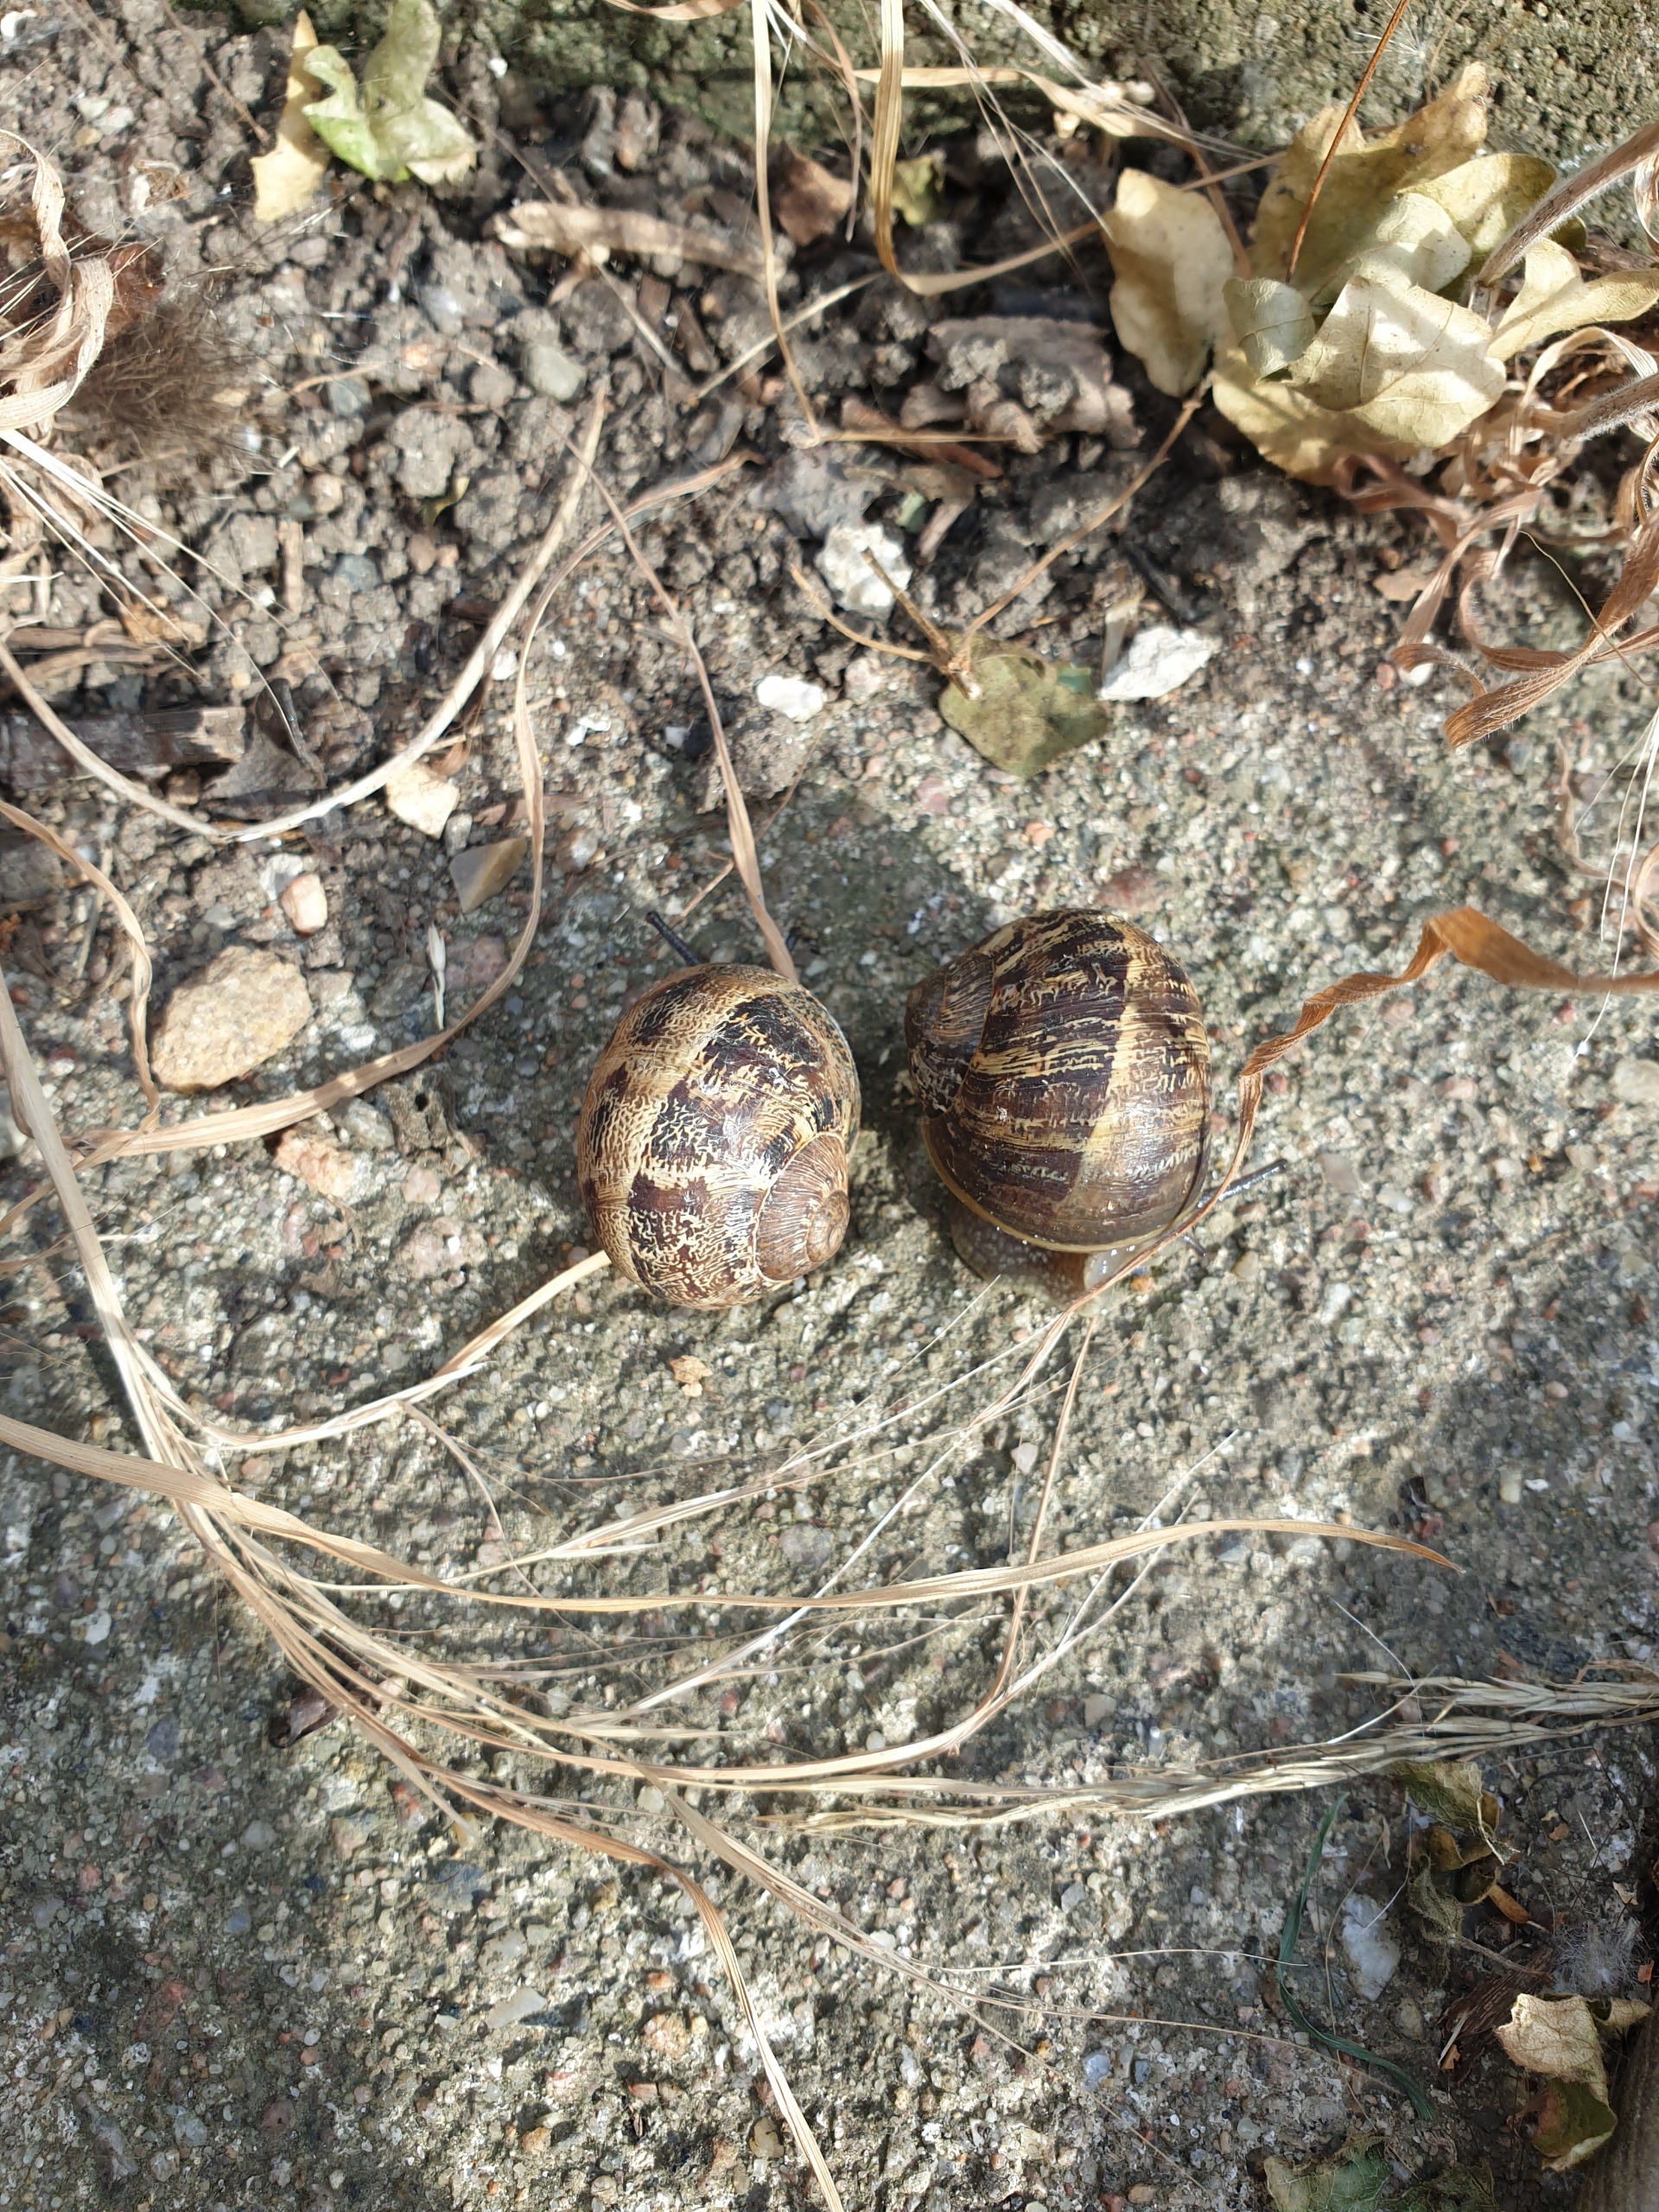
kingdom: Animalia
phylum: Mollusca
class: Gastropoda
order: Stylommatophora
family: Helicidae
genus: Cornu
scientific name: Cornu aspersum
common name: Plettet voldsnegl
